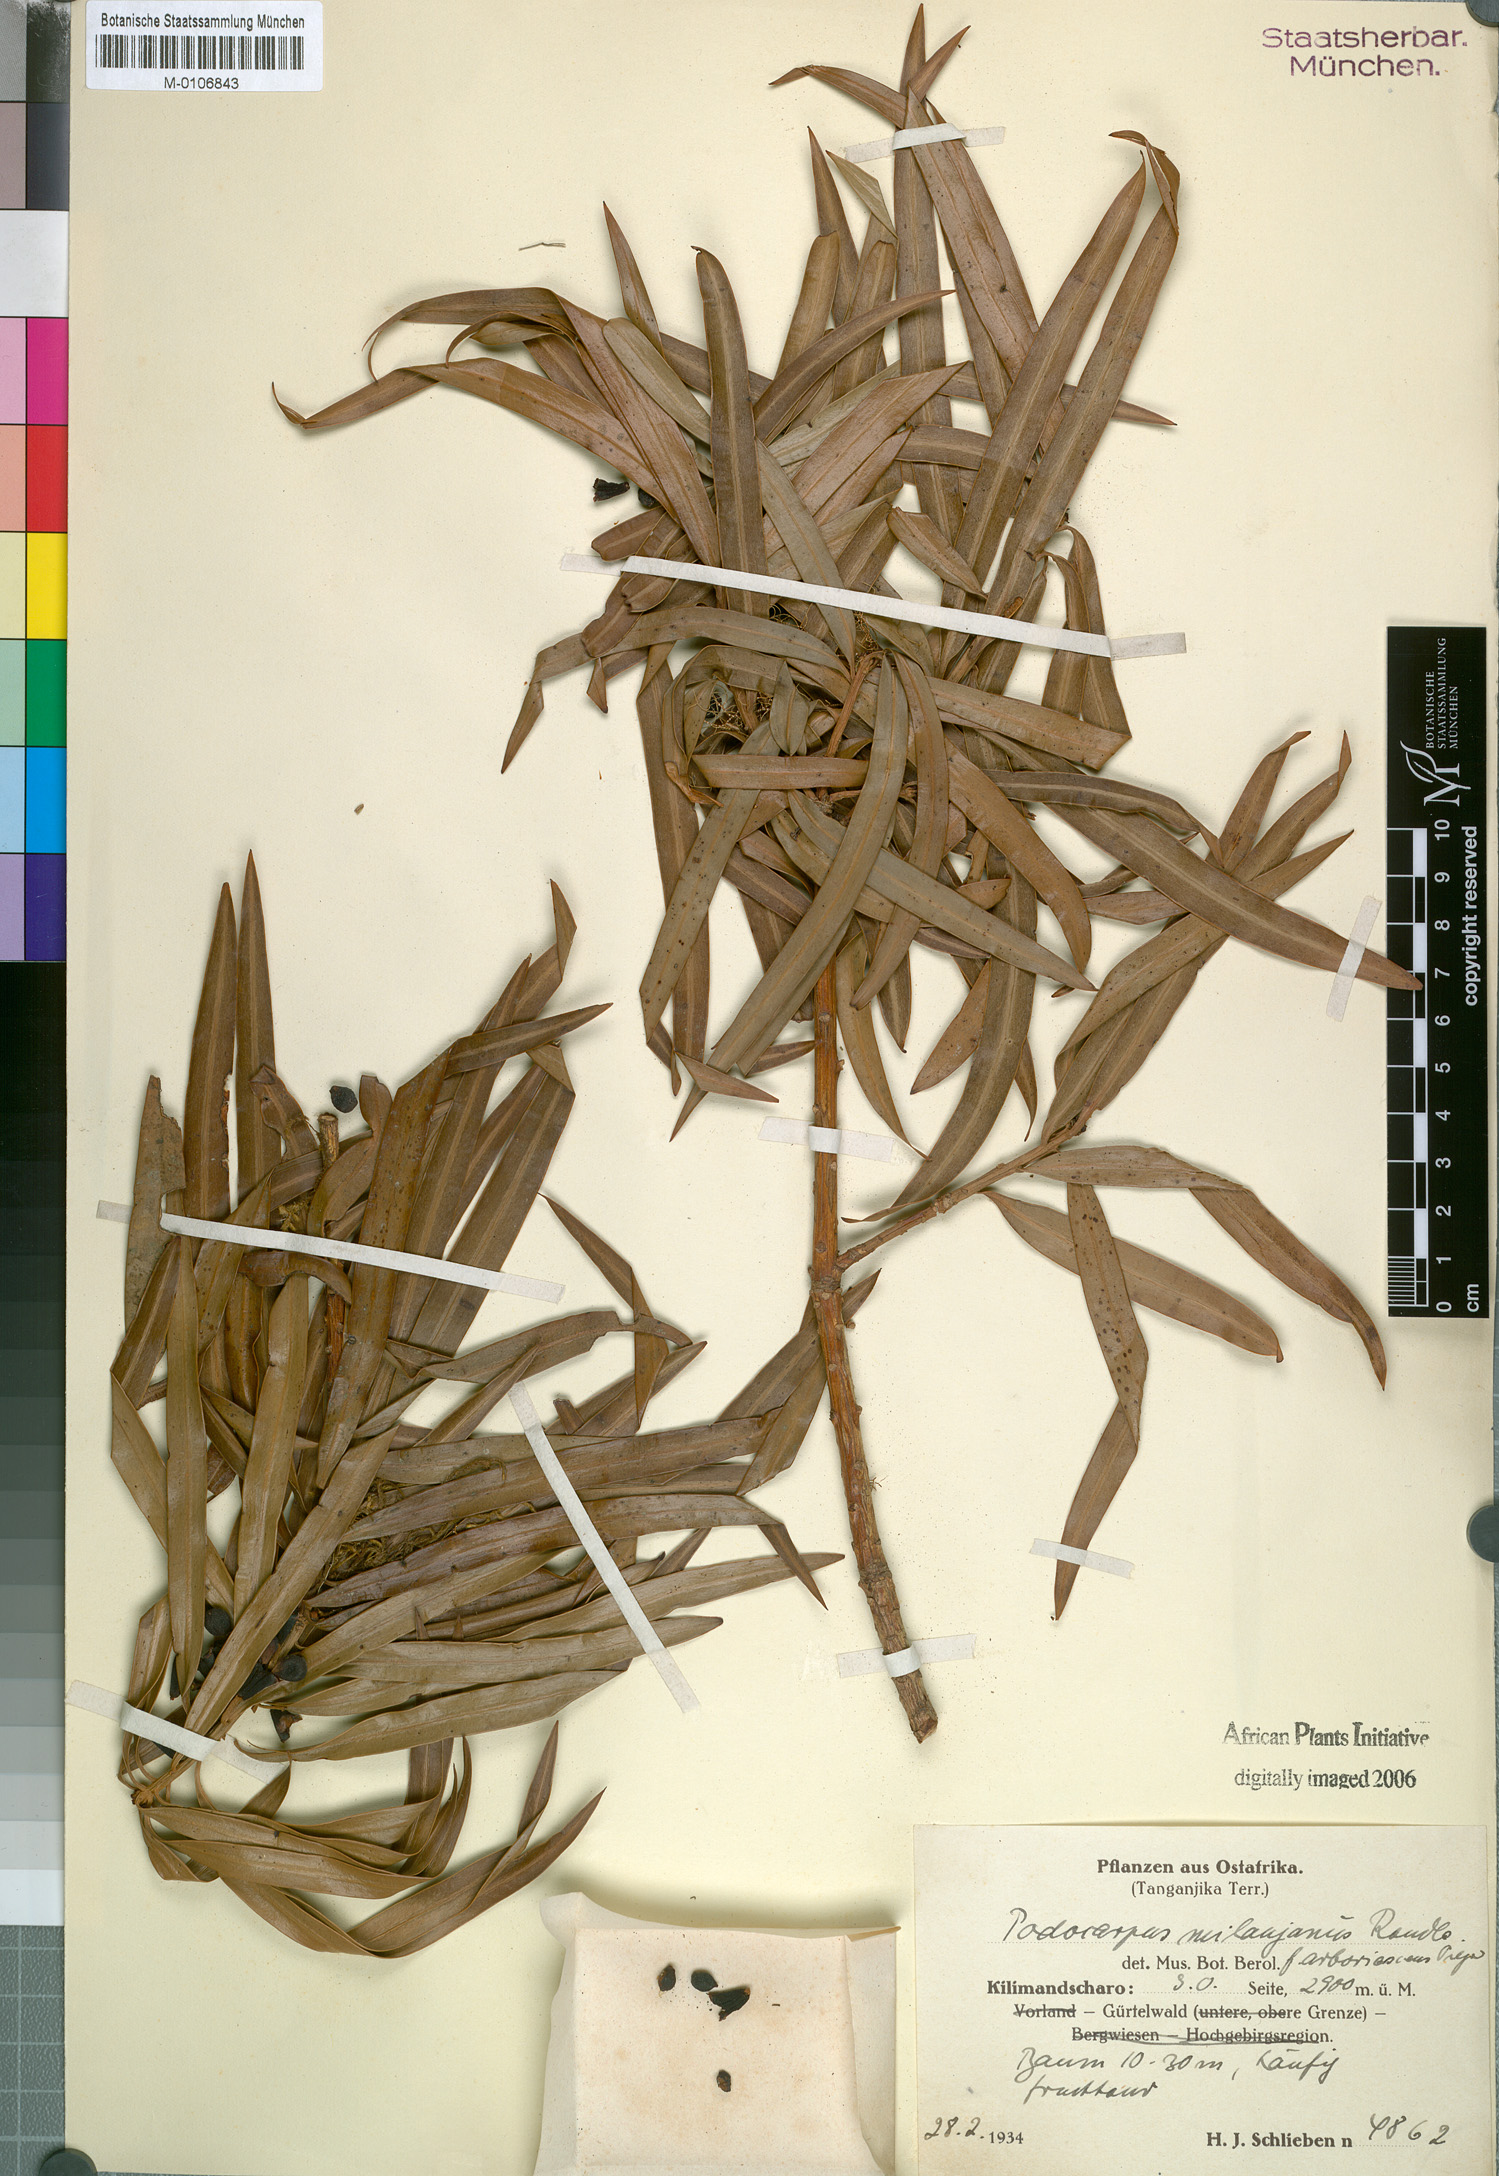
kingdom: Plantae
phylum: Tracheophyta
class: Pinopsida
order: Pinales
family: Podocarpaceae
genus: Podocarpus
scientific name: Podocarpus milanjianus
